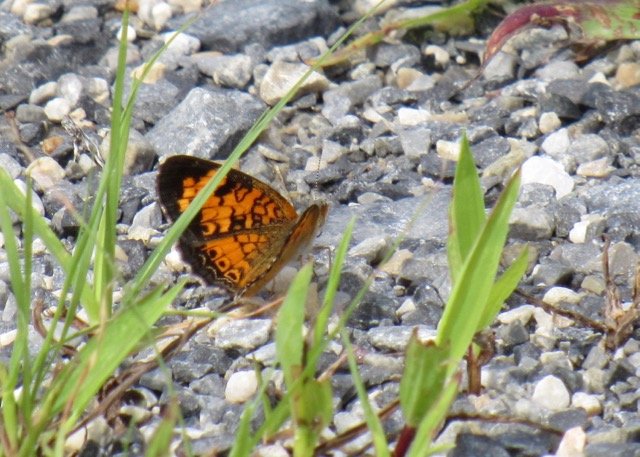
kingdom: Animalia
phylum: Arthropoda
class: Insecta
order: Lepidoptera
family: Nymphalidae
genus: Phyciodes
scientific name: Phyciodes tharos
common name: Pearl Crescent
